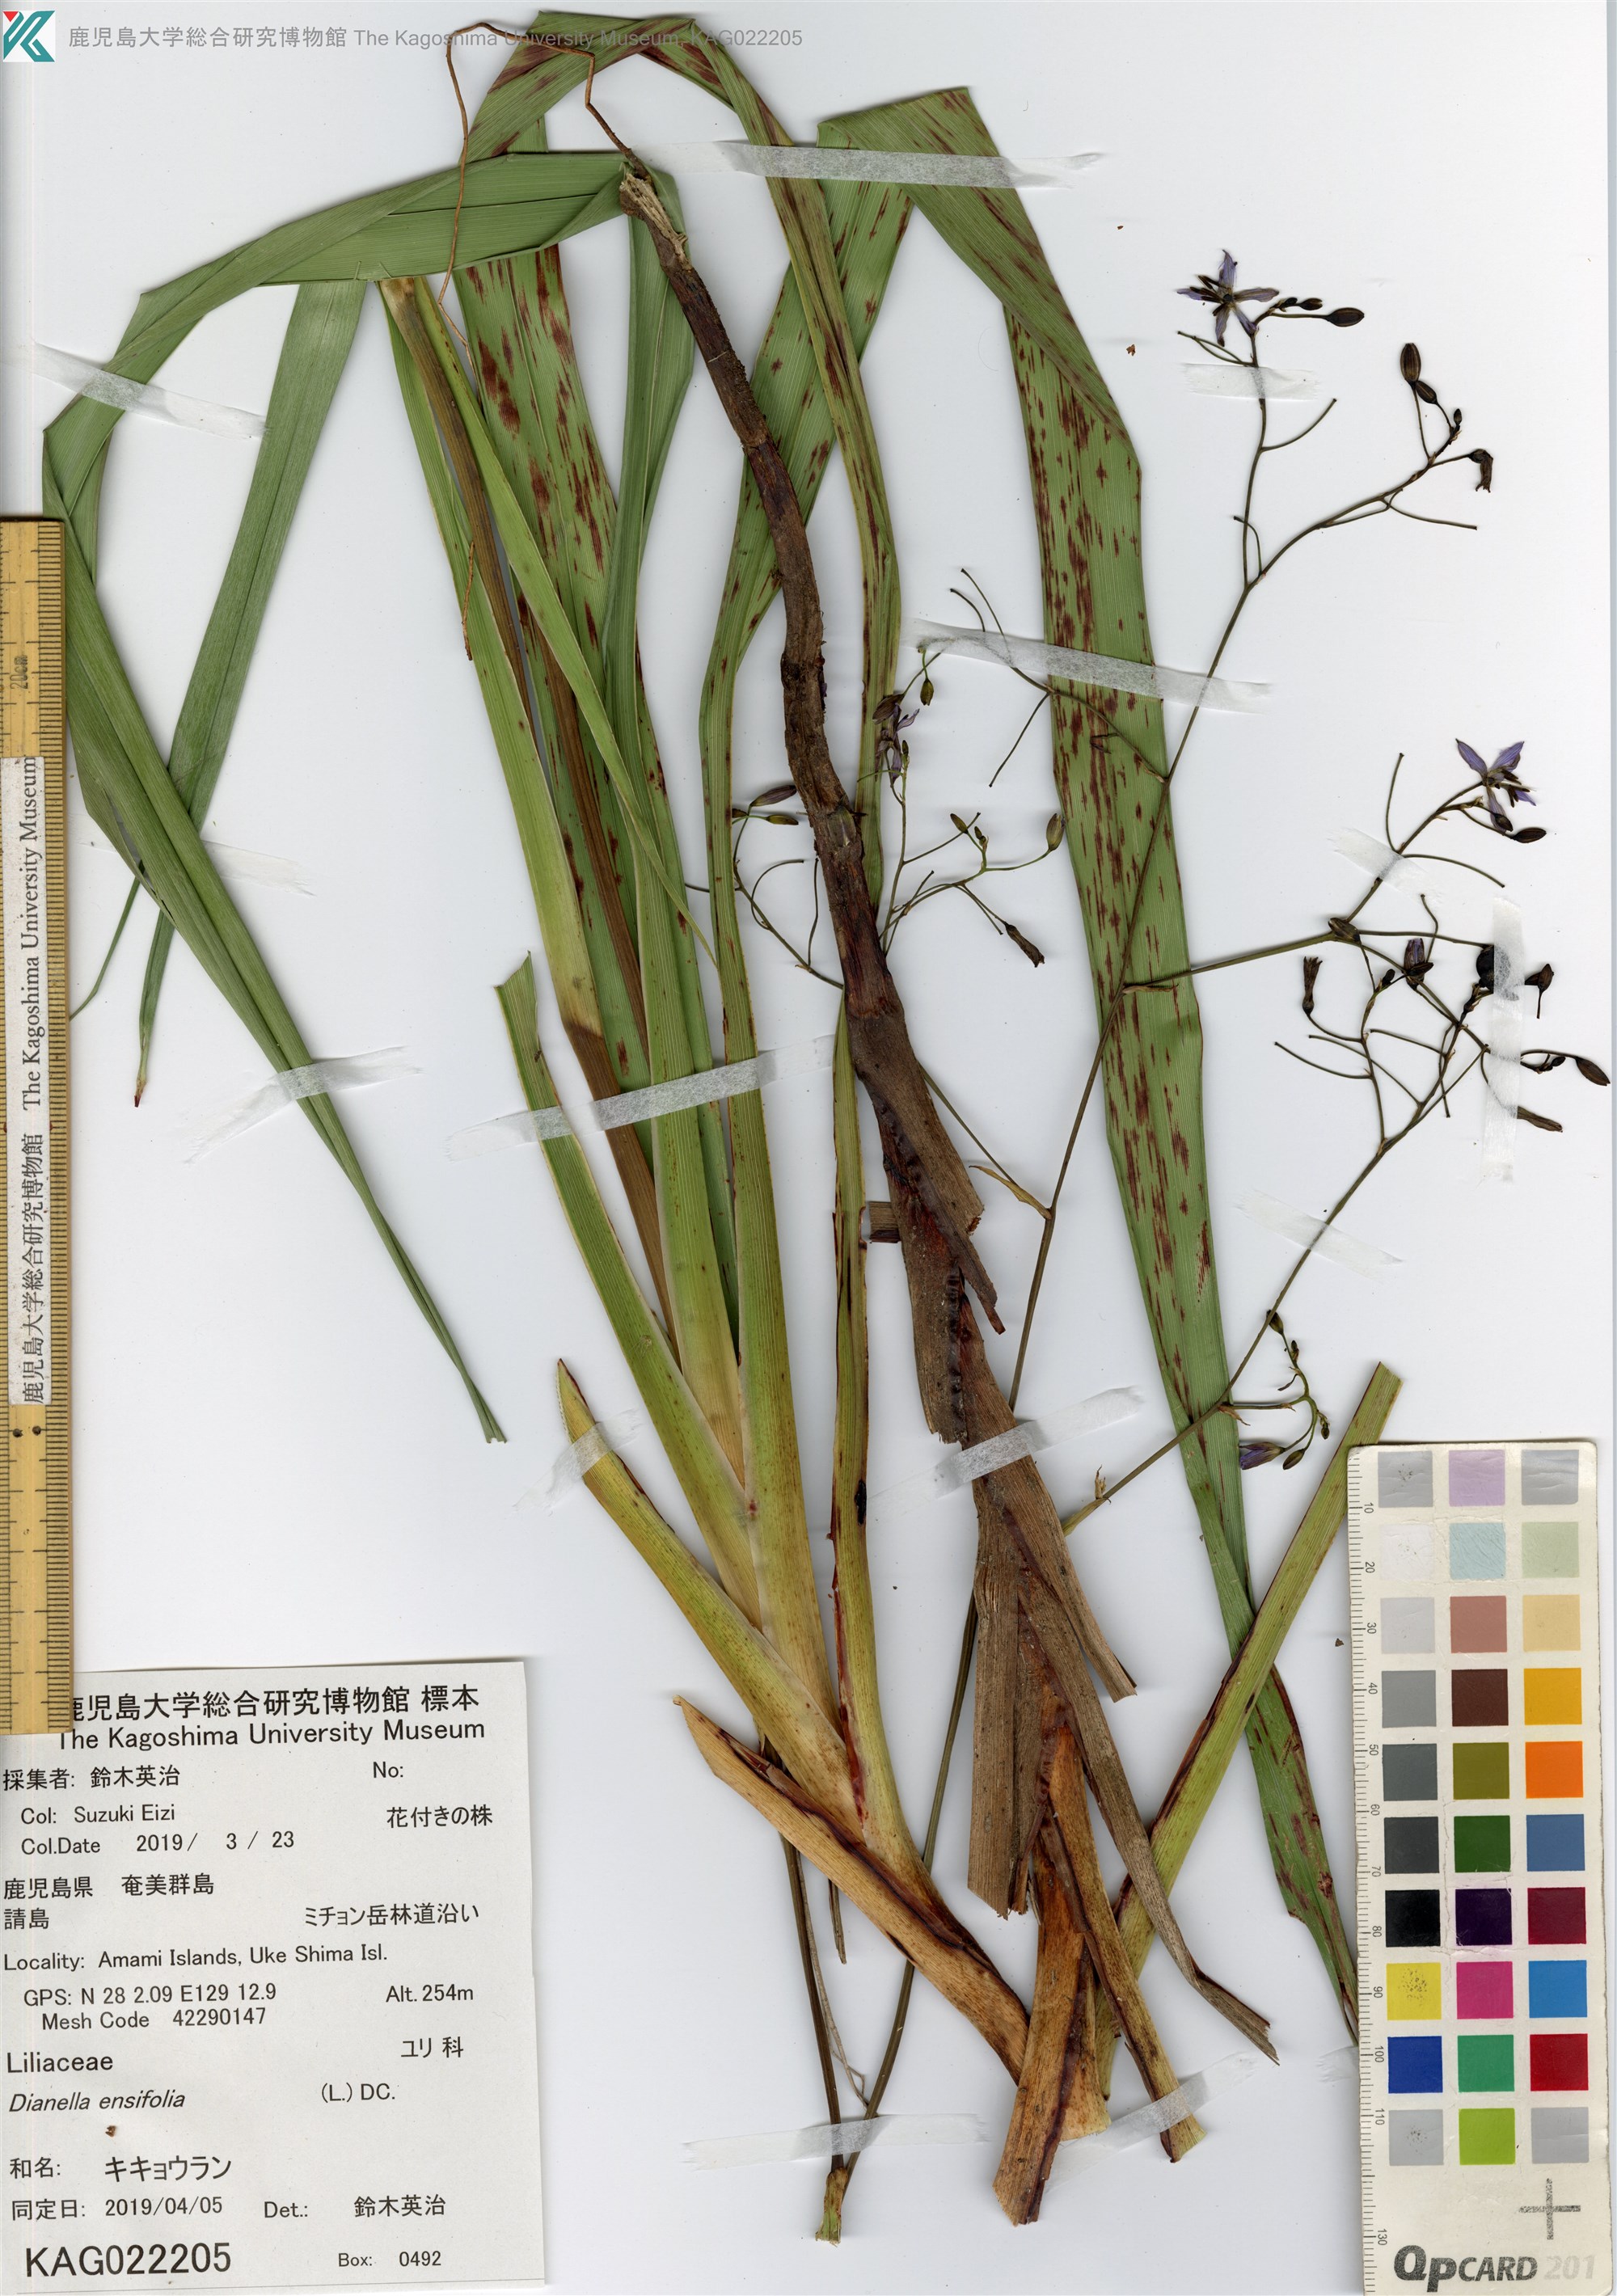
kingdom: Plantae
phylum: Tracheophyta
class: Liliopsida
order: Asparagales
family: Asphodelaceae
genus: Dianella
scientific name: Dianella ensifolia
